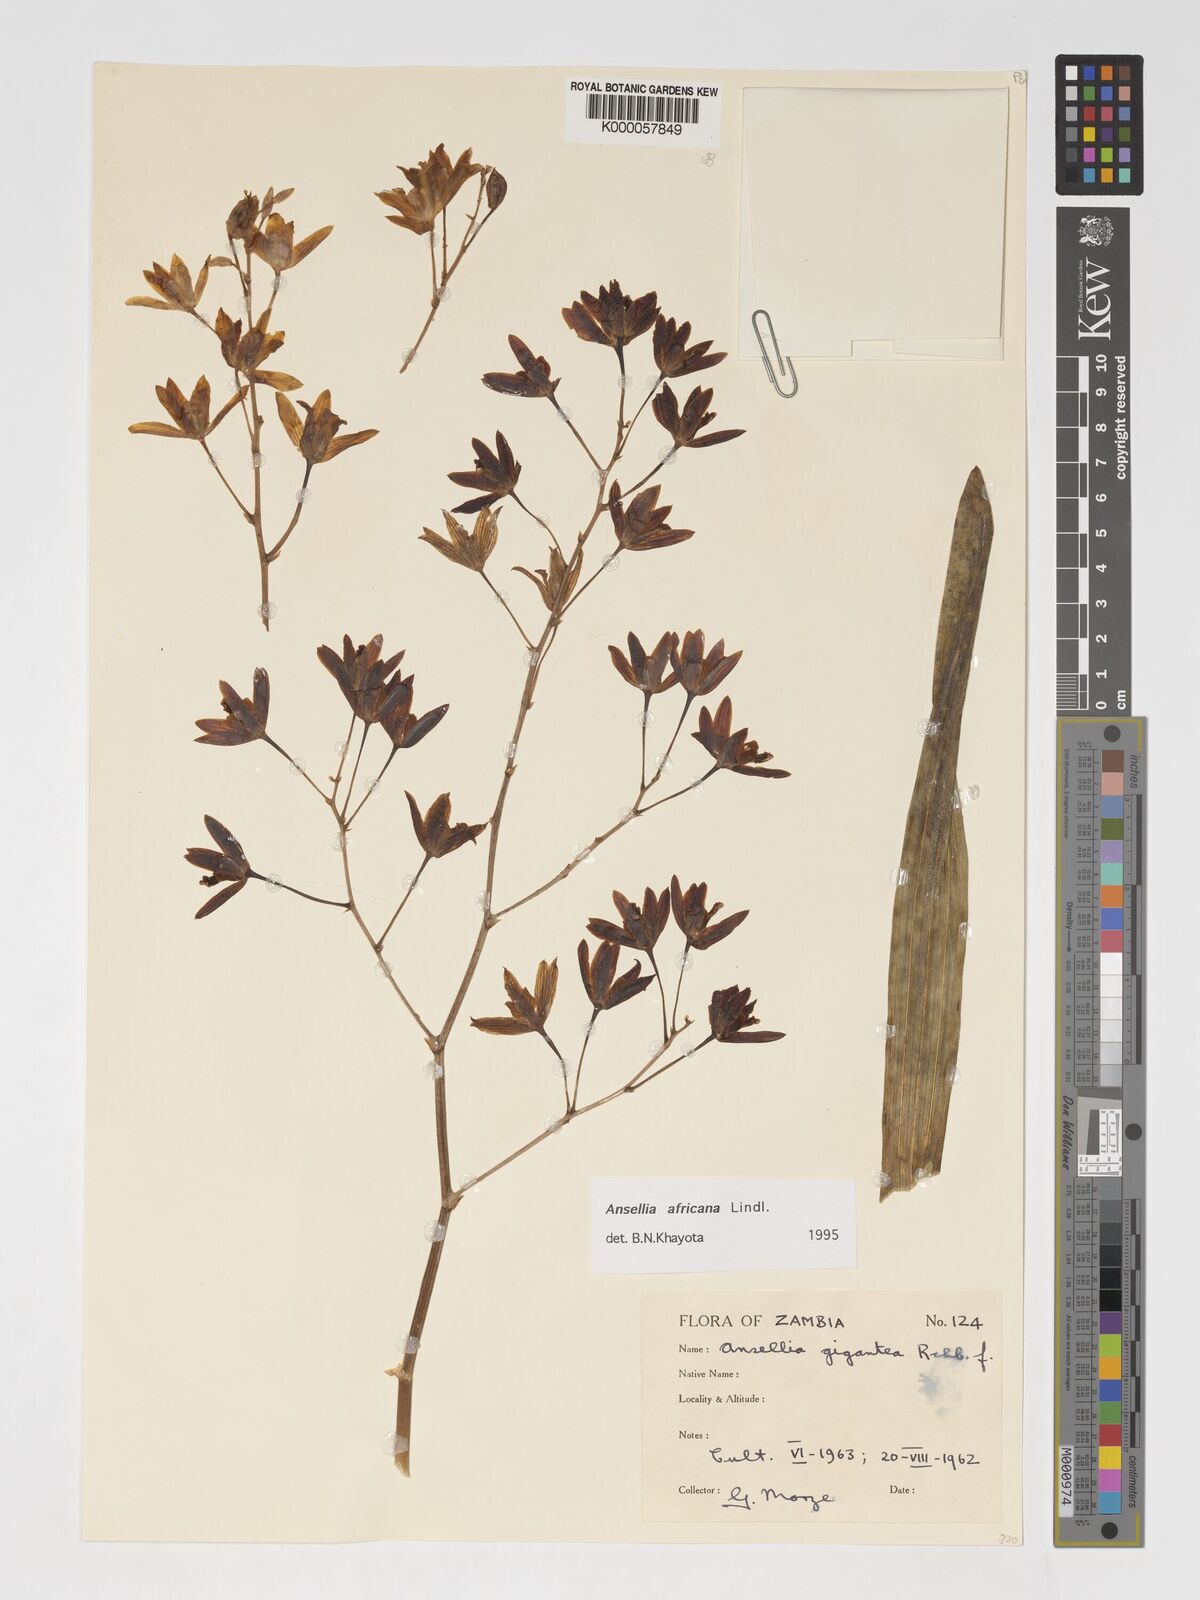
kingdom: Plantae
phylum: Tracheophyta
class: Liliopsida
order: Asparagales
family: Orchidaceae
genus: Ansellia
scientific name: Ansellia africana
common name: African ansellia
